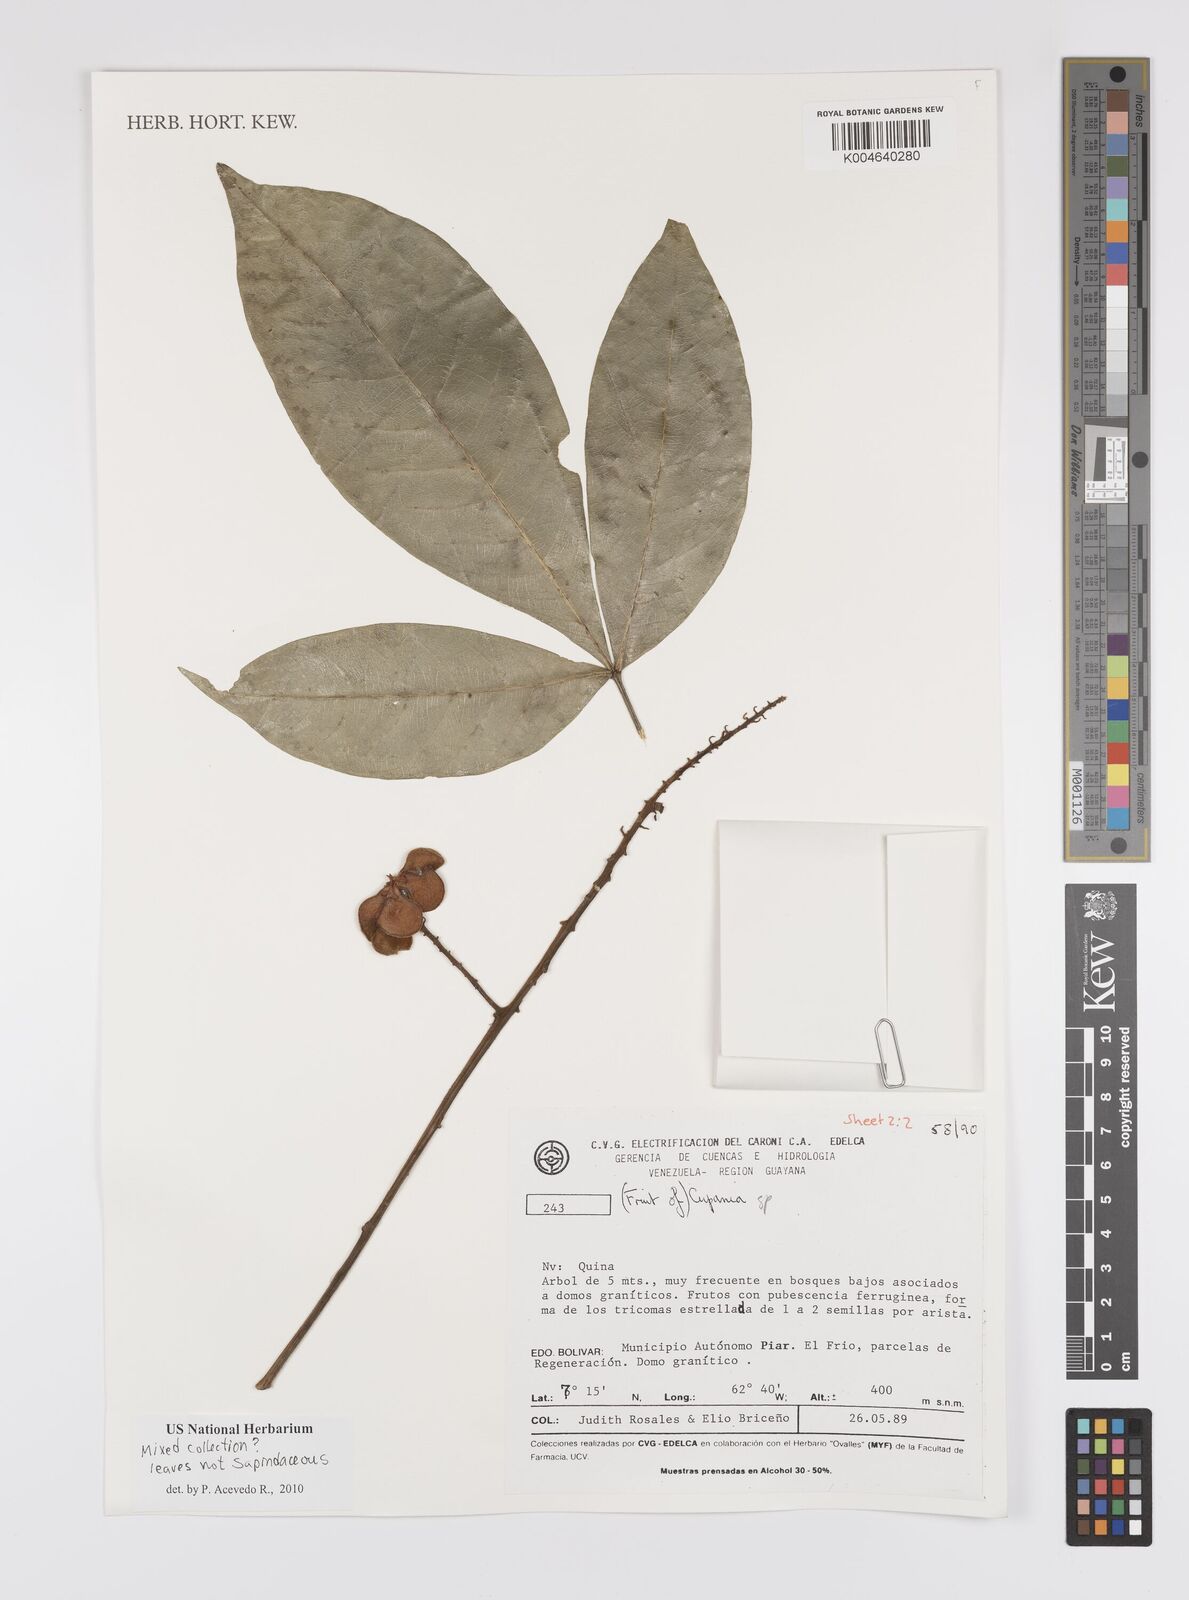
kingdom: Plantae
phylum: Tracheophyta
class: Magnoliopsida
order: Sapindales
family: Sapindaceae
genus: Cupania
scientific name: Cupania
